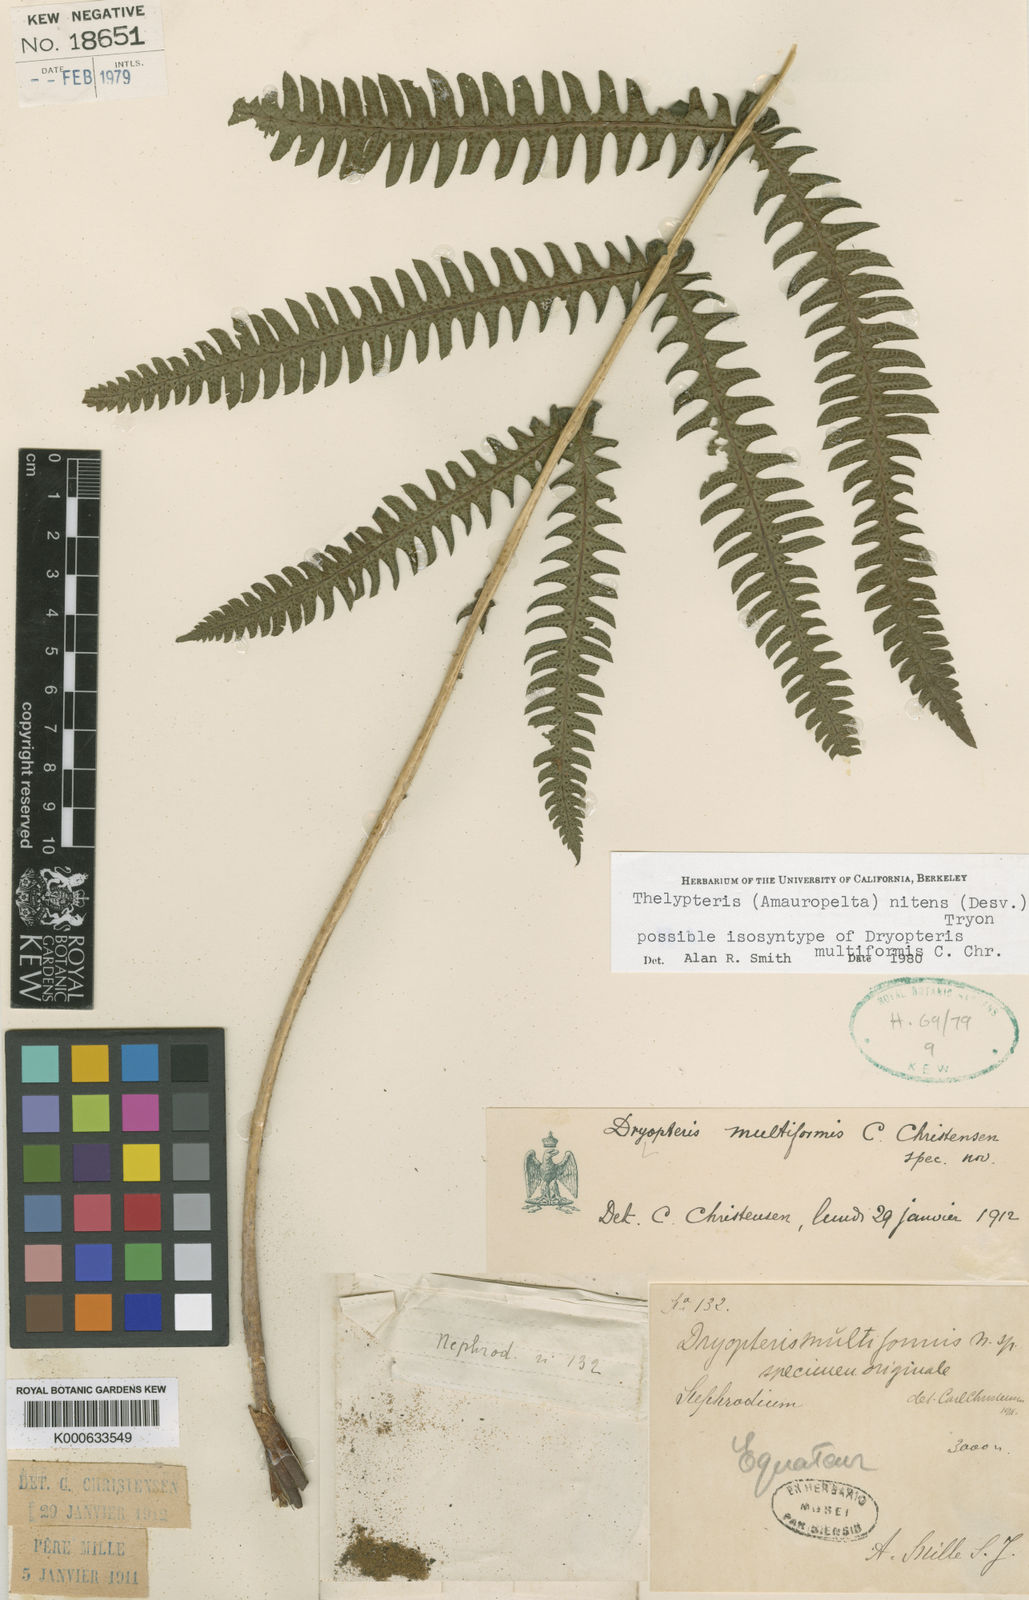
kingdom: Plantae
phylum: Tracheophyta
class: Polypodiopsida
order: Polypodiales
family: Thelypteridaceae
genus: Amauropelta
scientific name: Amauropelta
